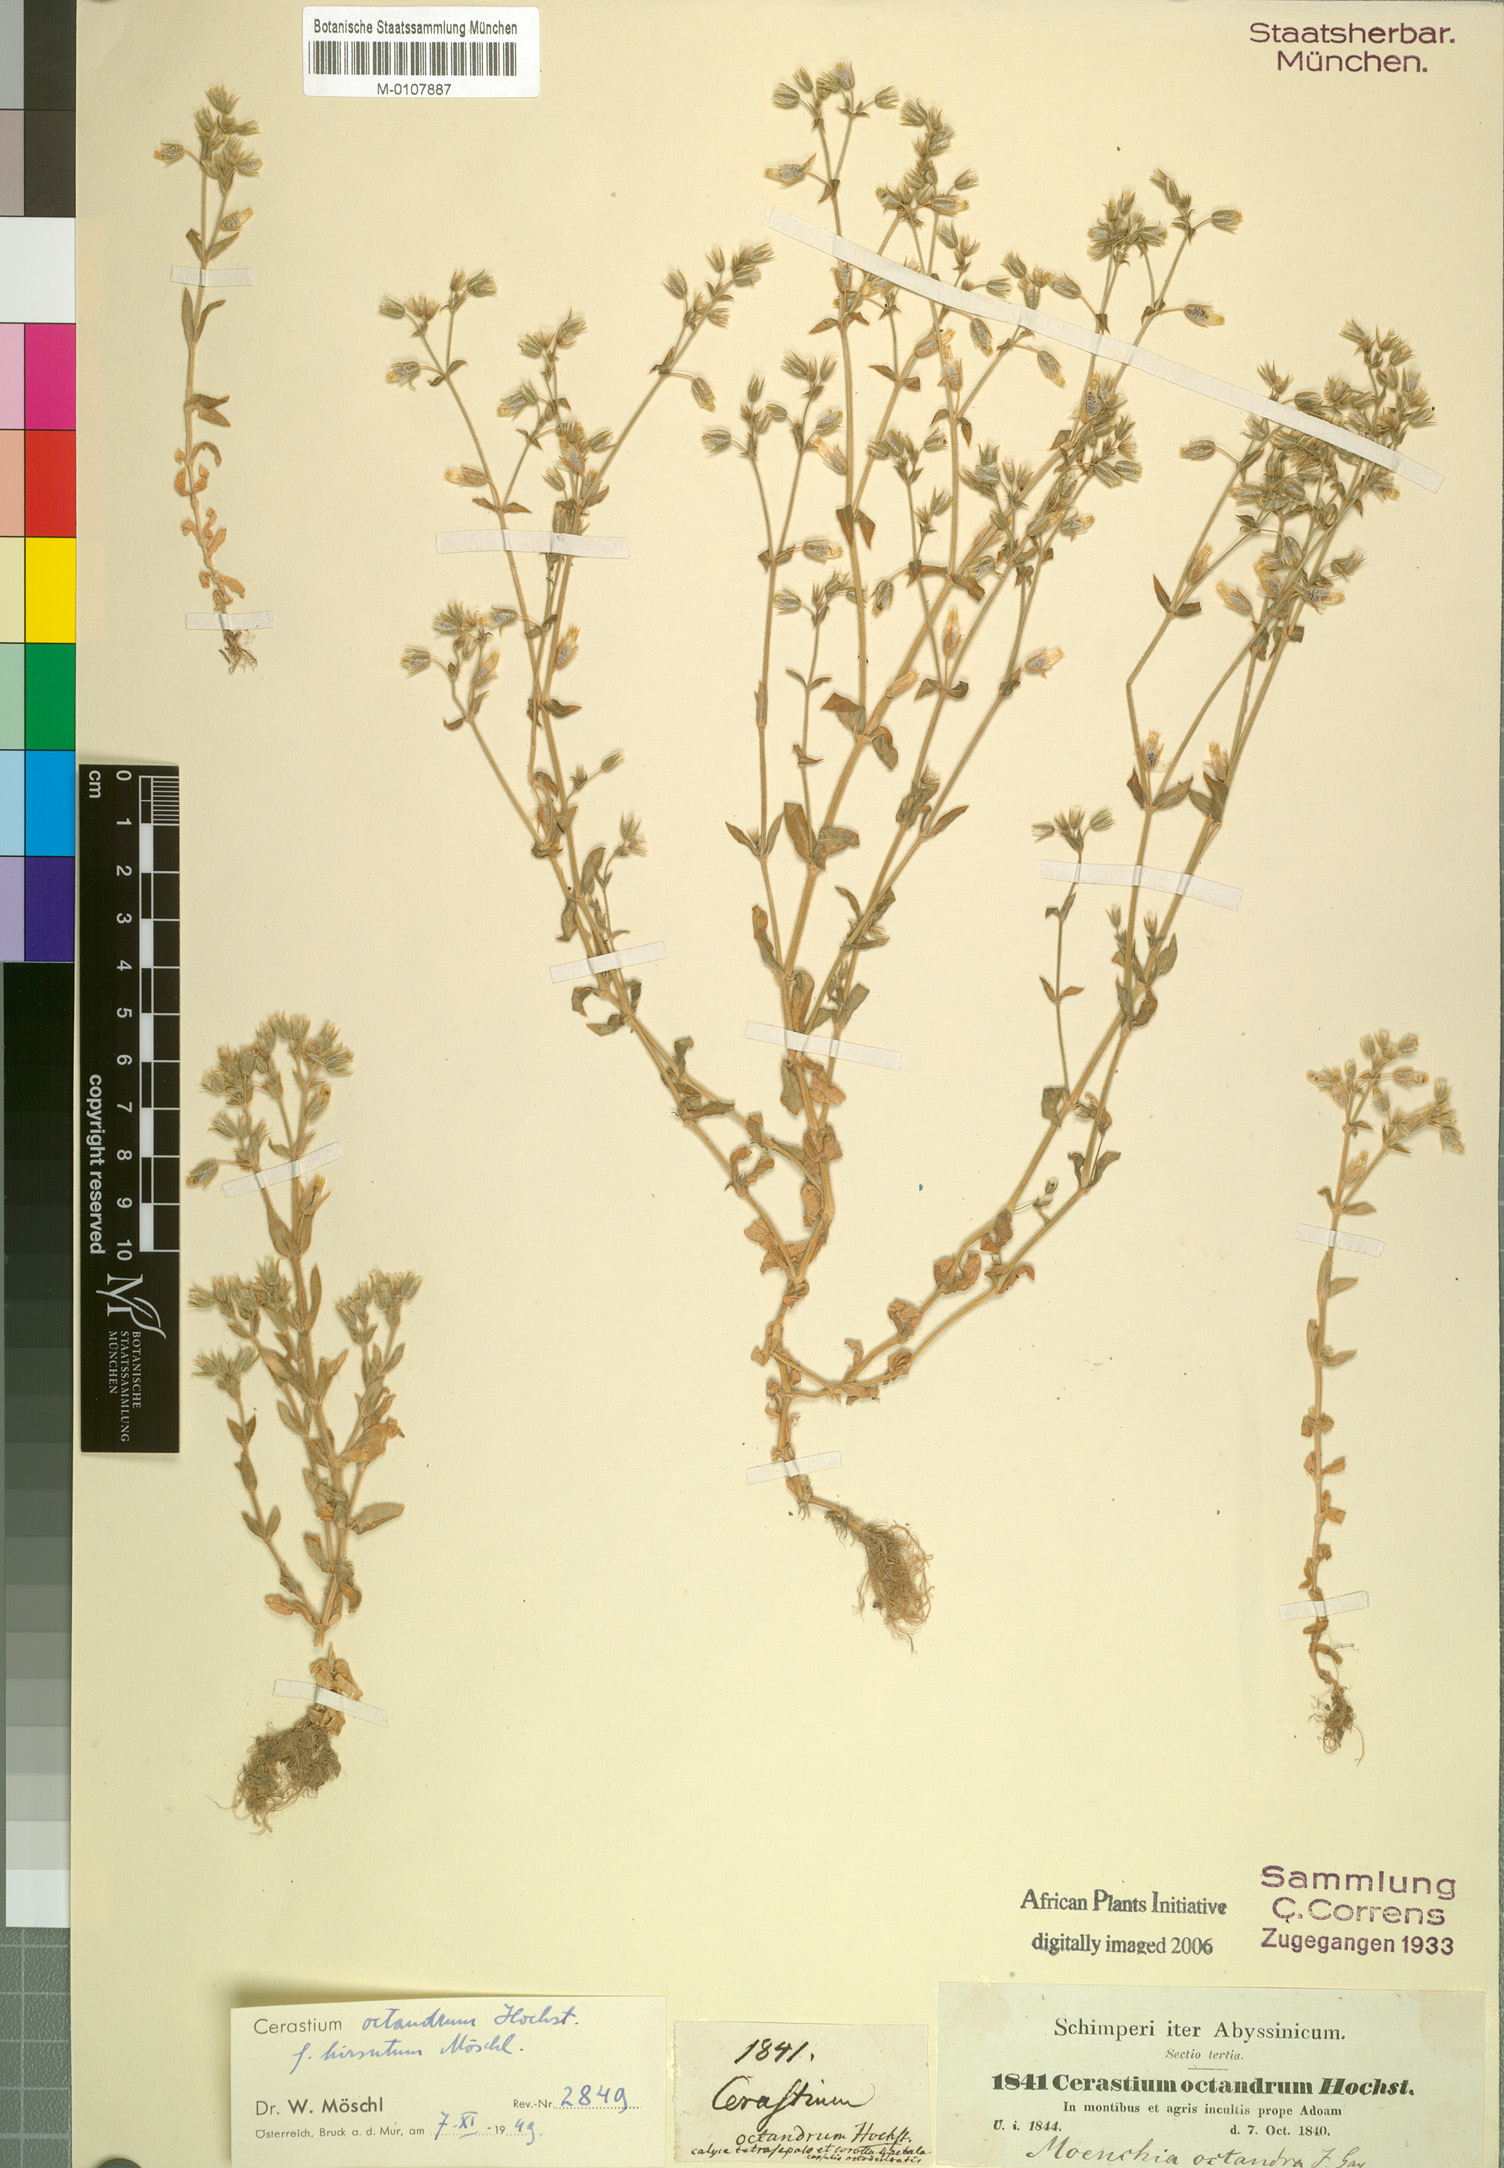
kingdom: Plantae
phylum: Tracheophyta
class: Magnoliopsida
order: Caryophyllales
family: Caryophyllaceae
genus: Cerastium
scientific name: Cerastium octandrum
